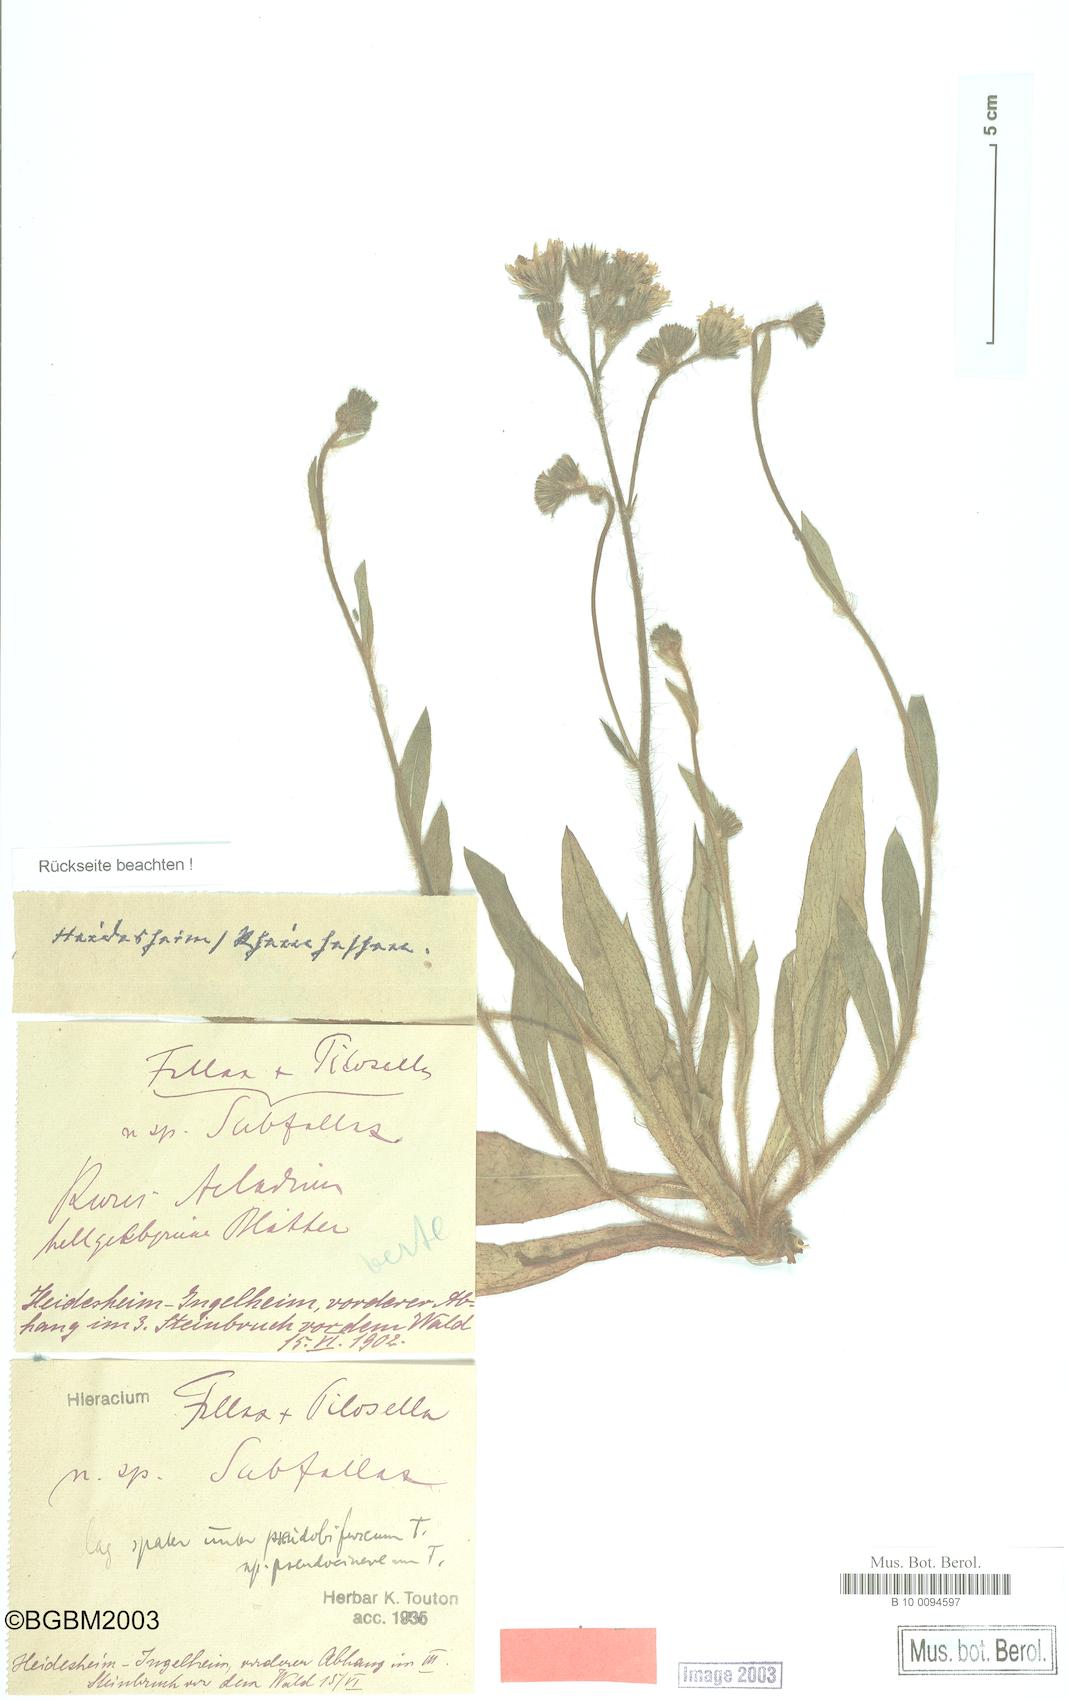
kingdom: Plantae
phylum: Tracheophyta
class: Magnoliopsida
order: Asterales
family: Asteraceae
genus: Pilosella
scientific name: Pilosella piloselloides
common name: Glaucous king-devil
